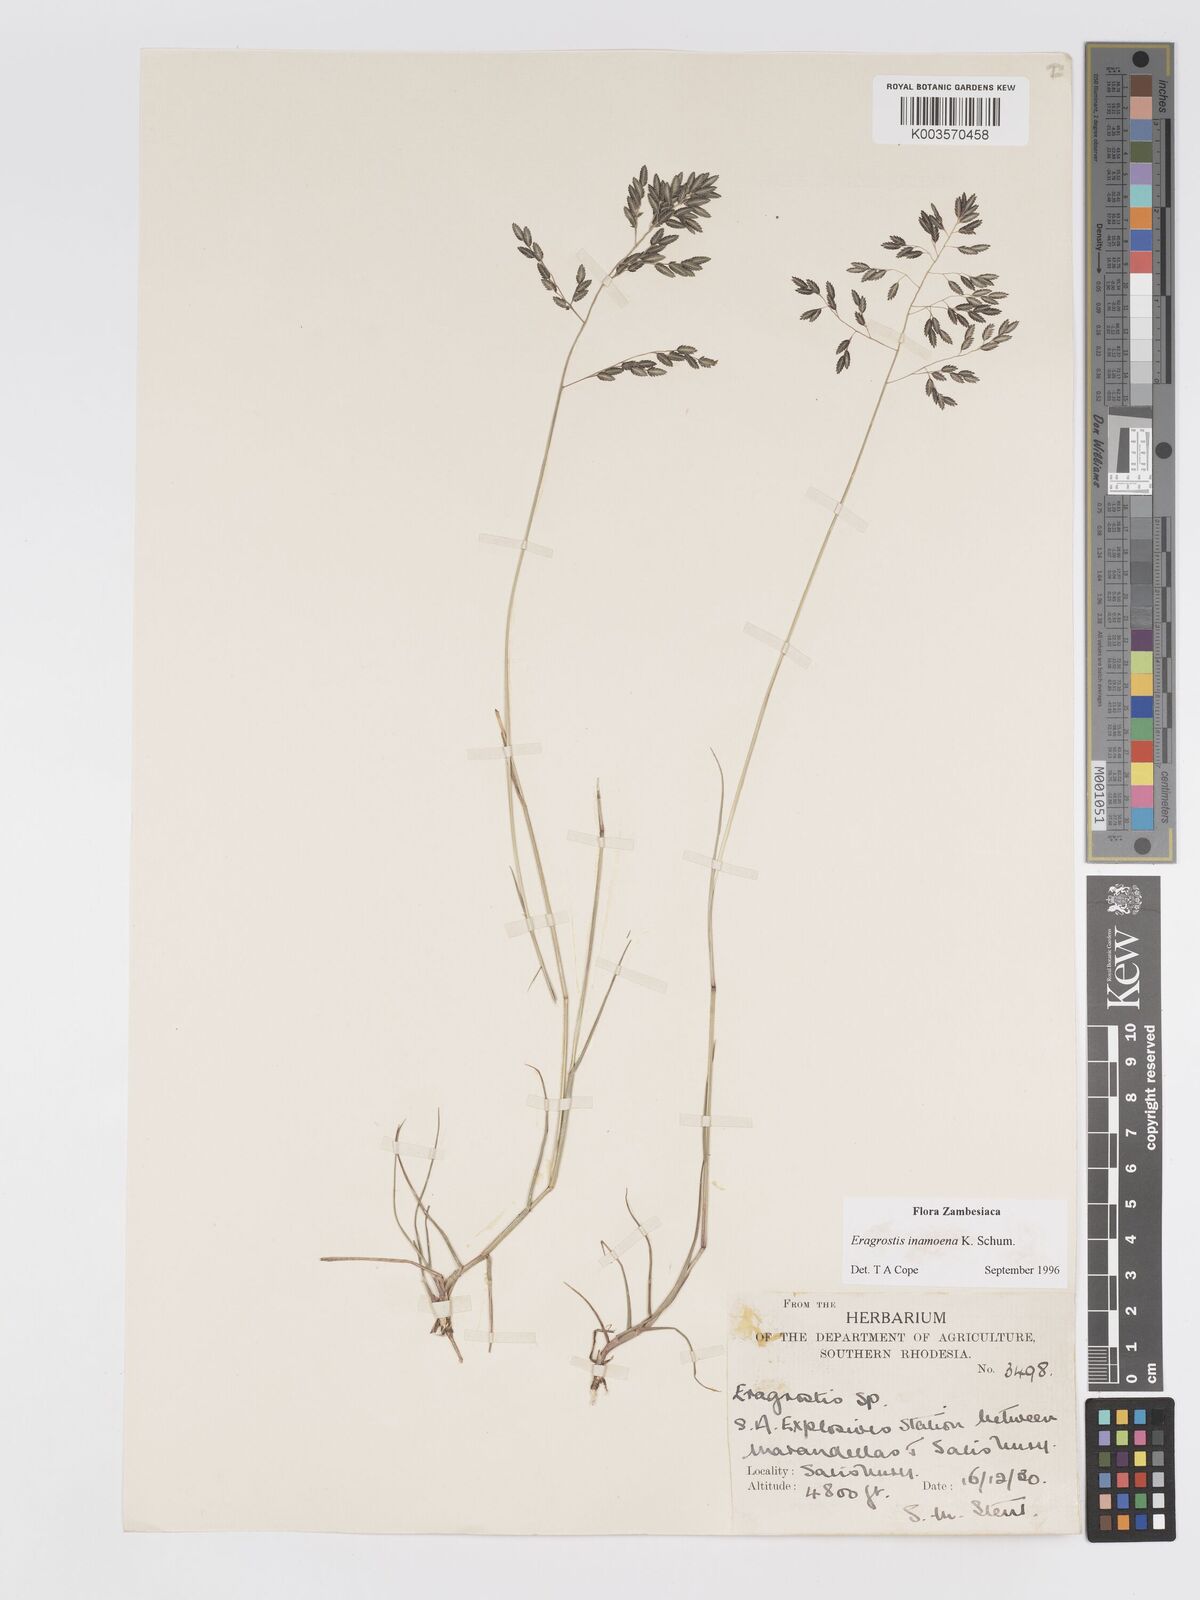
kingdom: Plantae
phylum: Tracheophyta
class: Liliopsida
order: Poales
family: Poaceae
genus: Eragrostis
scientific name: Eragrostis inamoena
